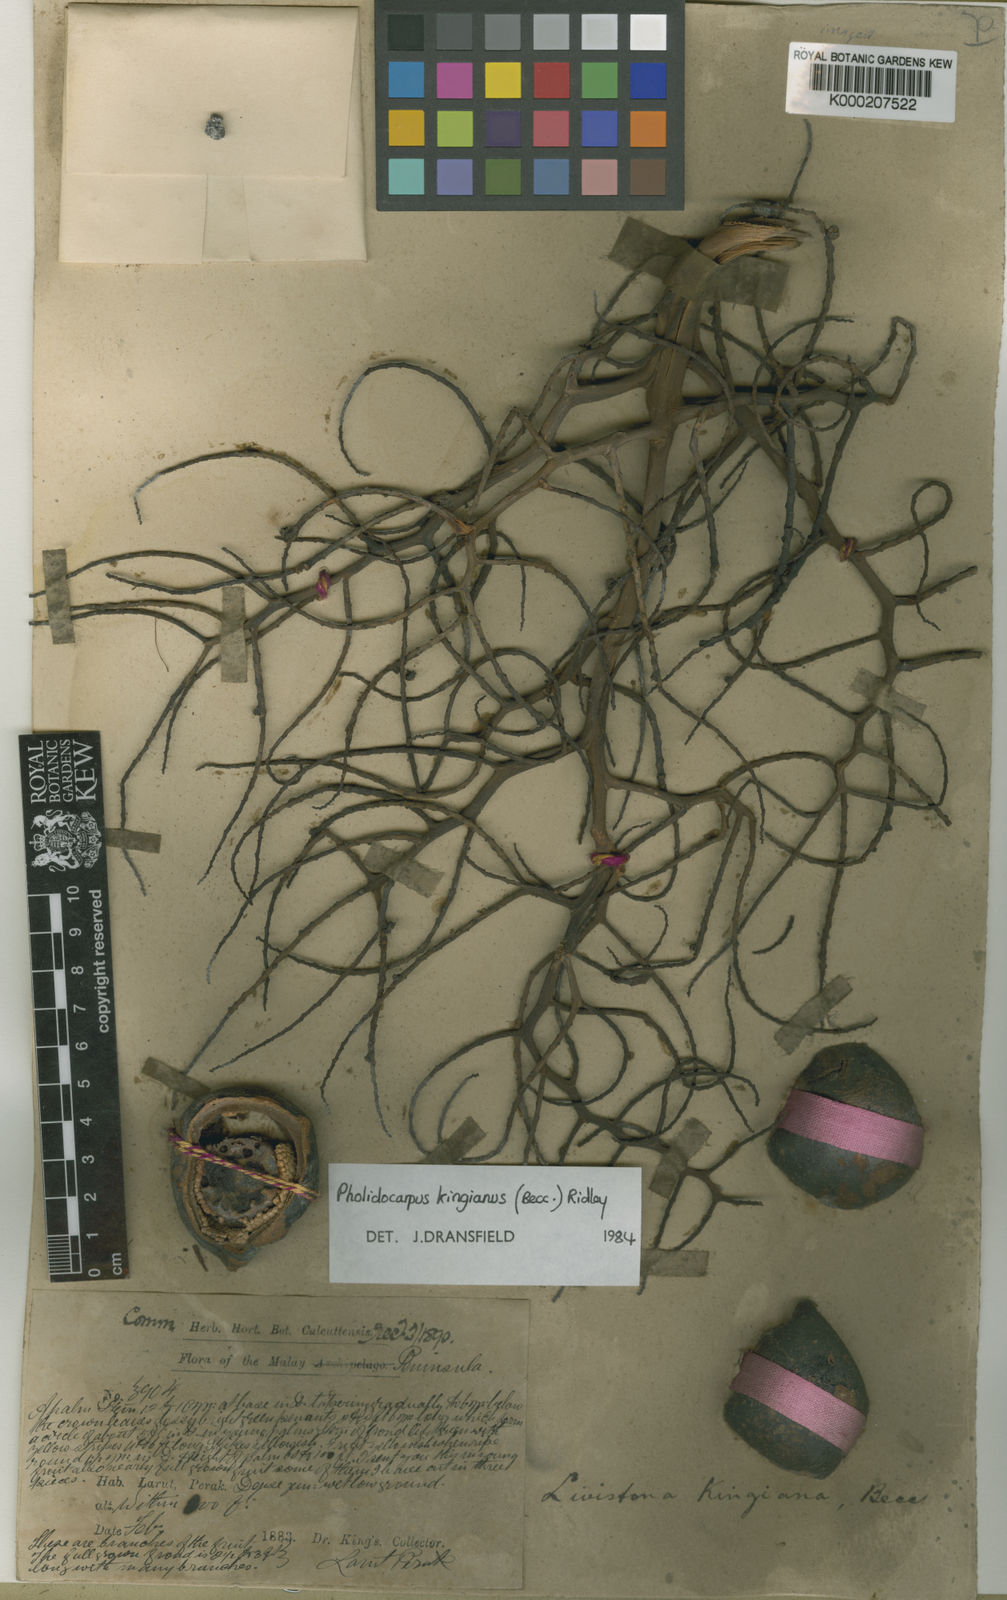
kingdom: Plantae
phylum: Tracheophyta
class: Liliopsida
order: Arecales
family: Arecaceae
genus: Pholidocarpus
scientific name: Pholidocarpus kingianus
